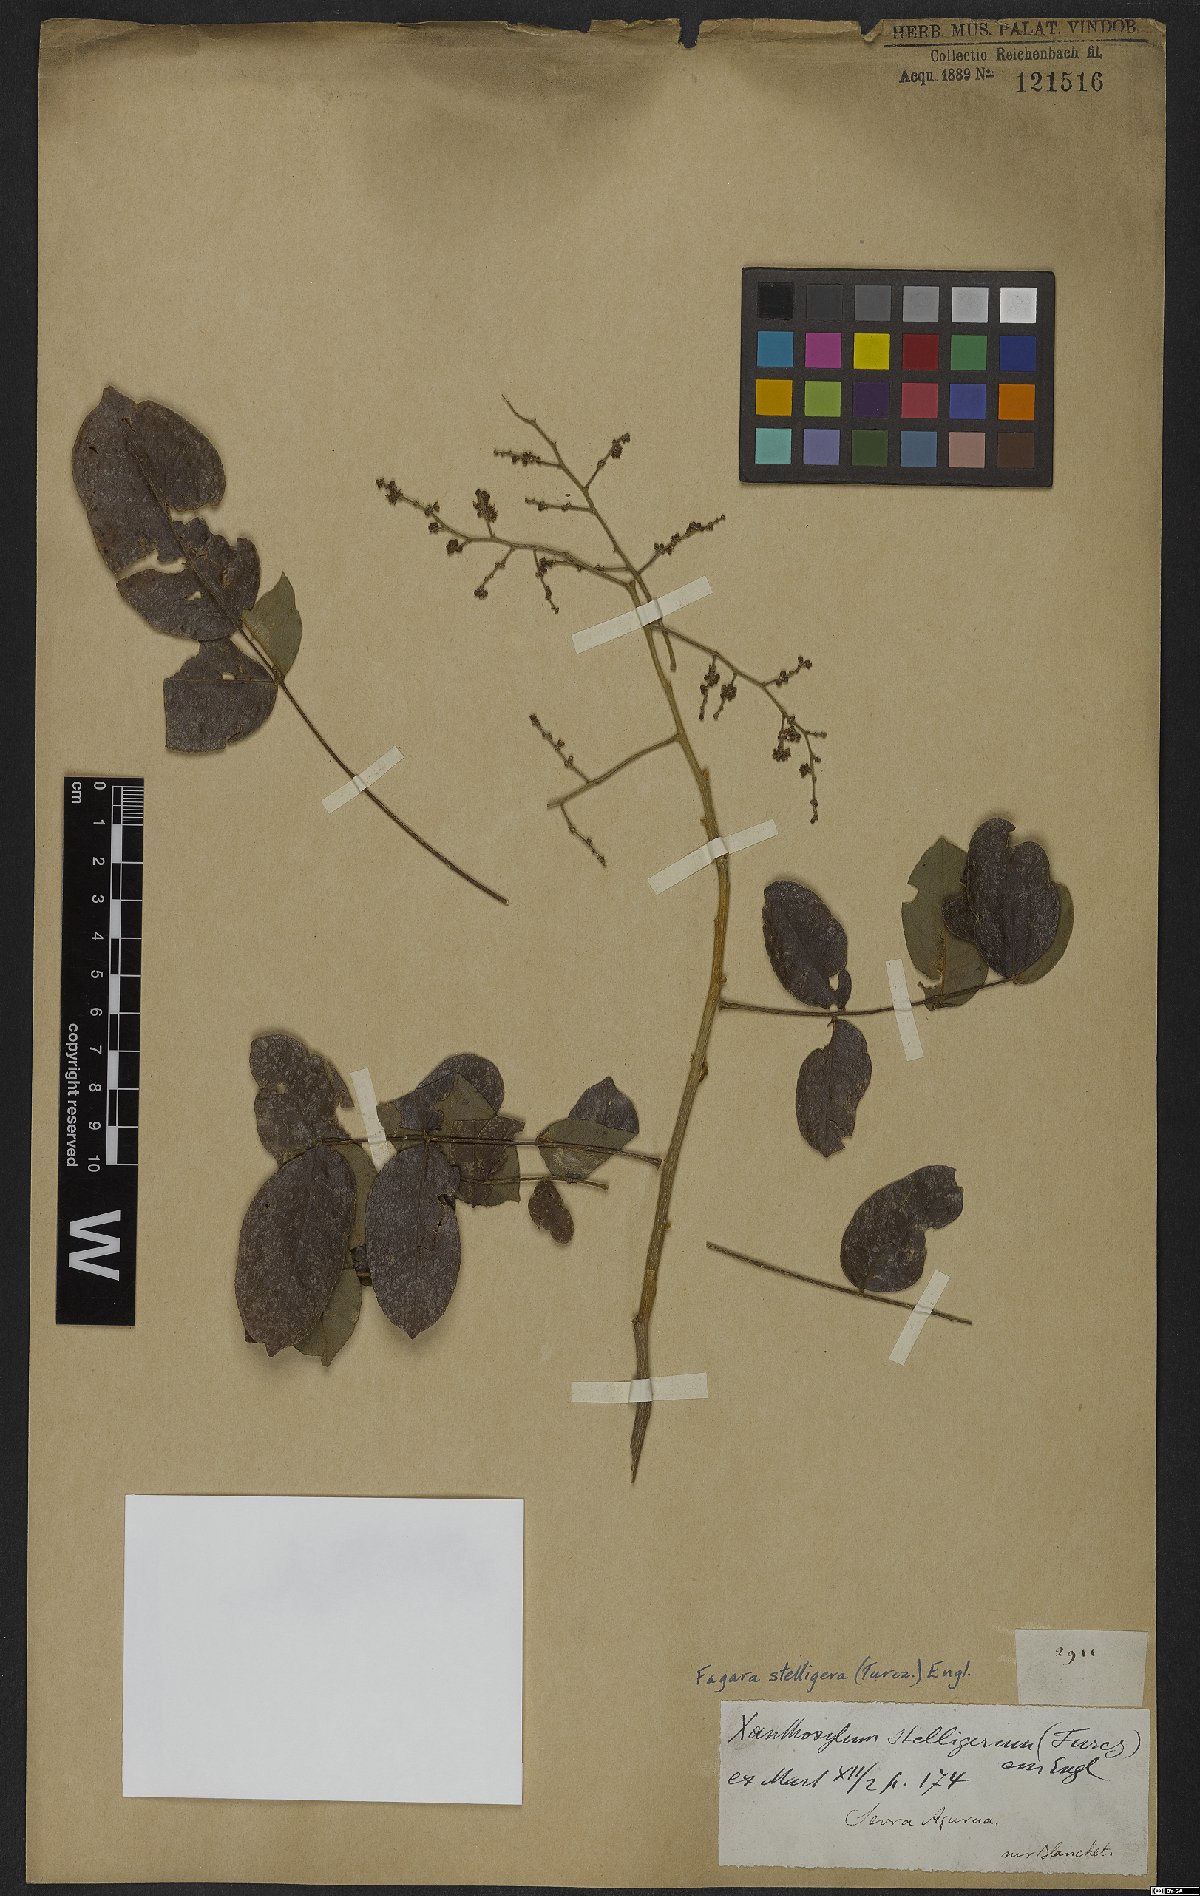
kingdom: Plantae
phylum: Tracheophyta
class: Magnoliopsida
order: Sapindales
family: Rutaceae
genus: Zanthoxylum
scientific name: Zanthoxylum stelligerum
